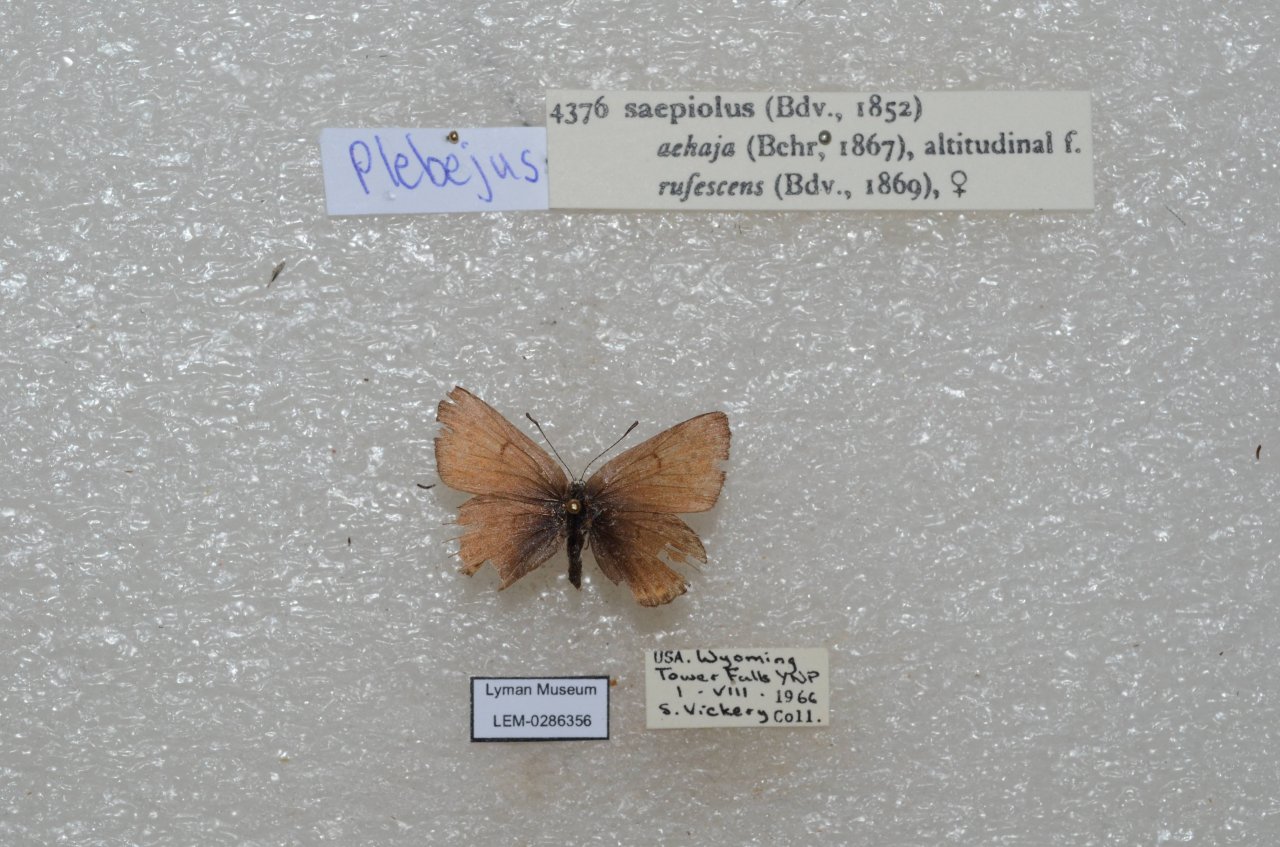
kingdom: Animalia
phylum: Arthropoda
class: Insecta
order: Lepidoptera
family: Lycaenidae
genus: Plebejus
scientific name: Plebejus saepiolus
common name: Greenish Blue
